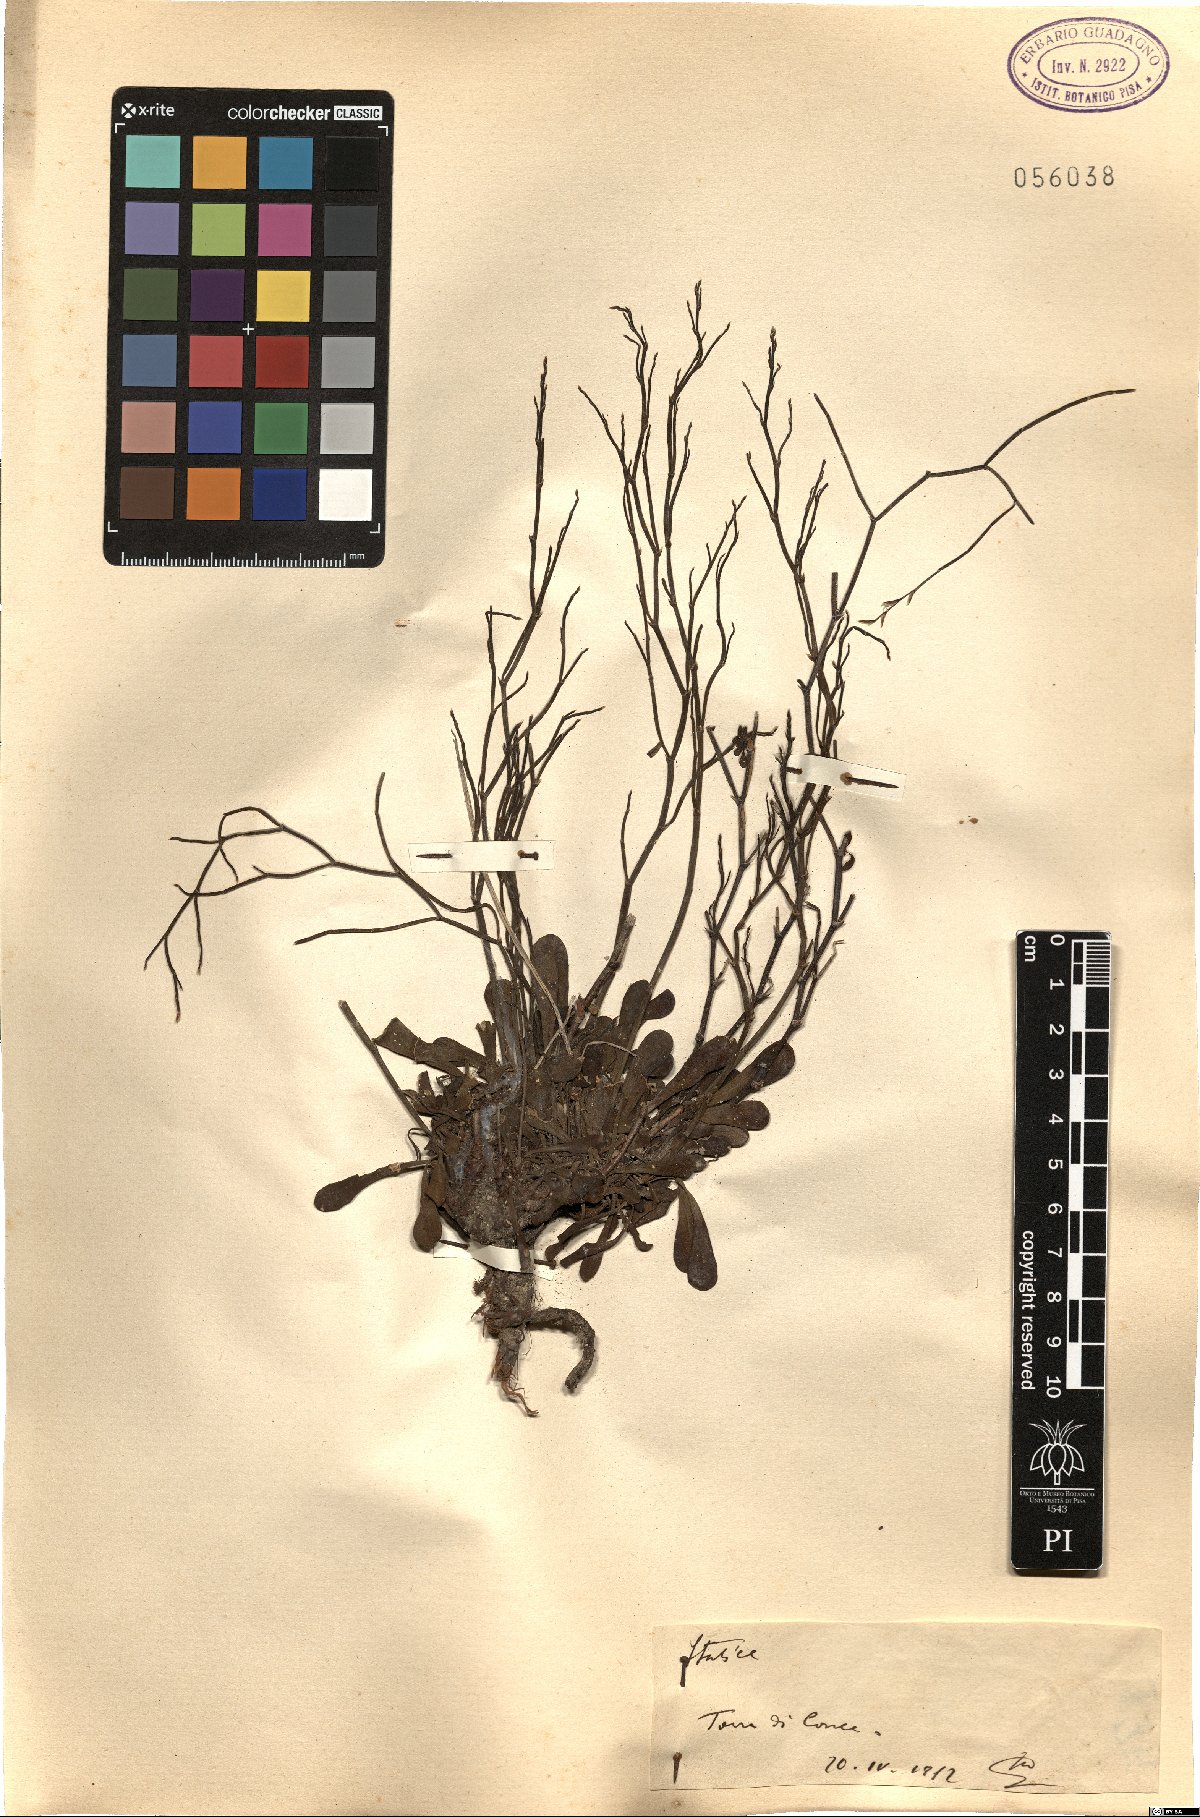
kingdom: Plantae
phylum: Tracheophyta
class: Magnoliopsida
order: Caryophyllales
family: Plumbaginaceae
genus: Armeria
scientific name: Armeria
